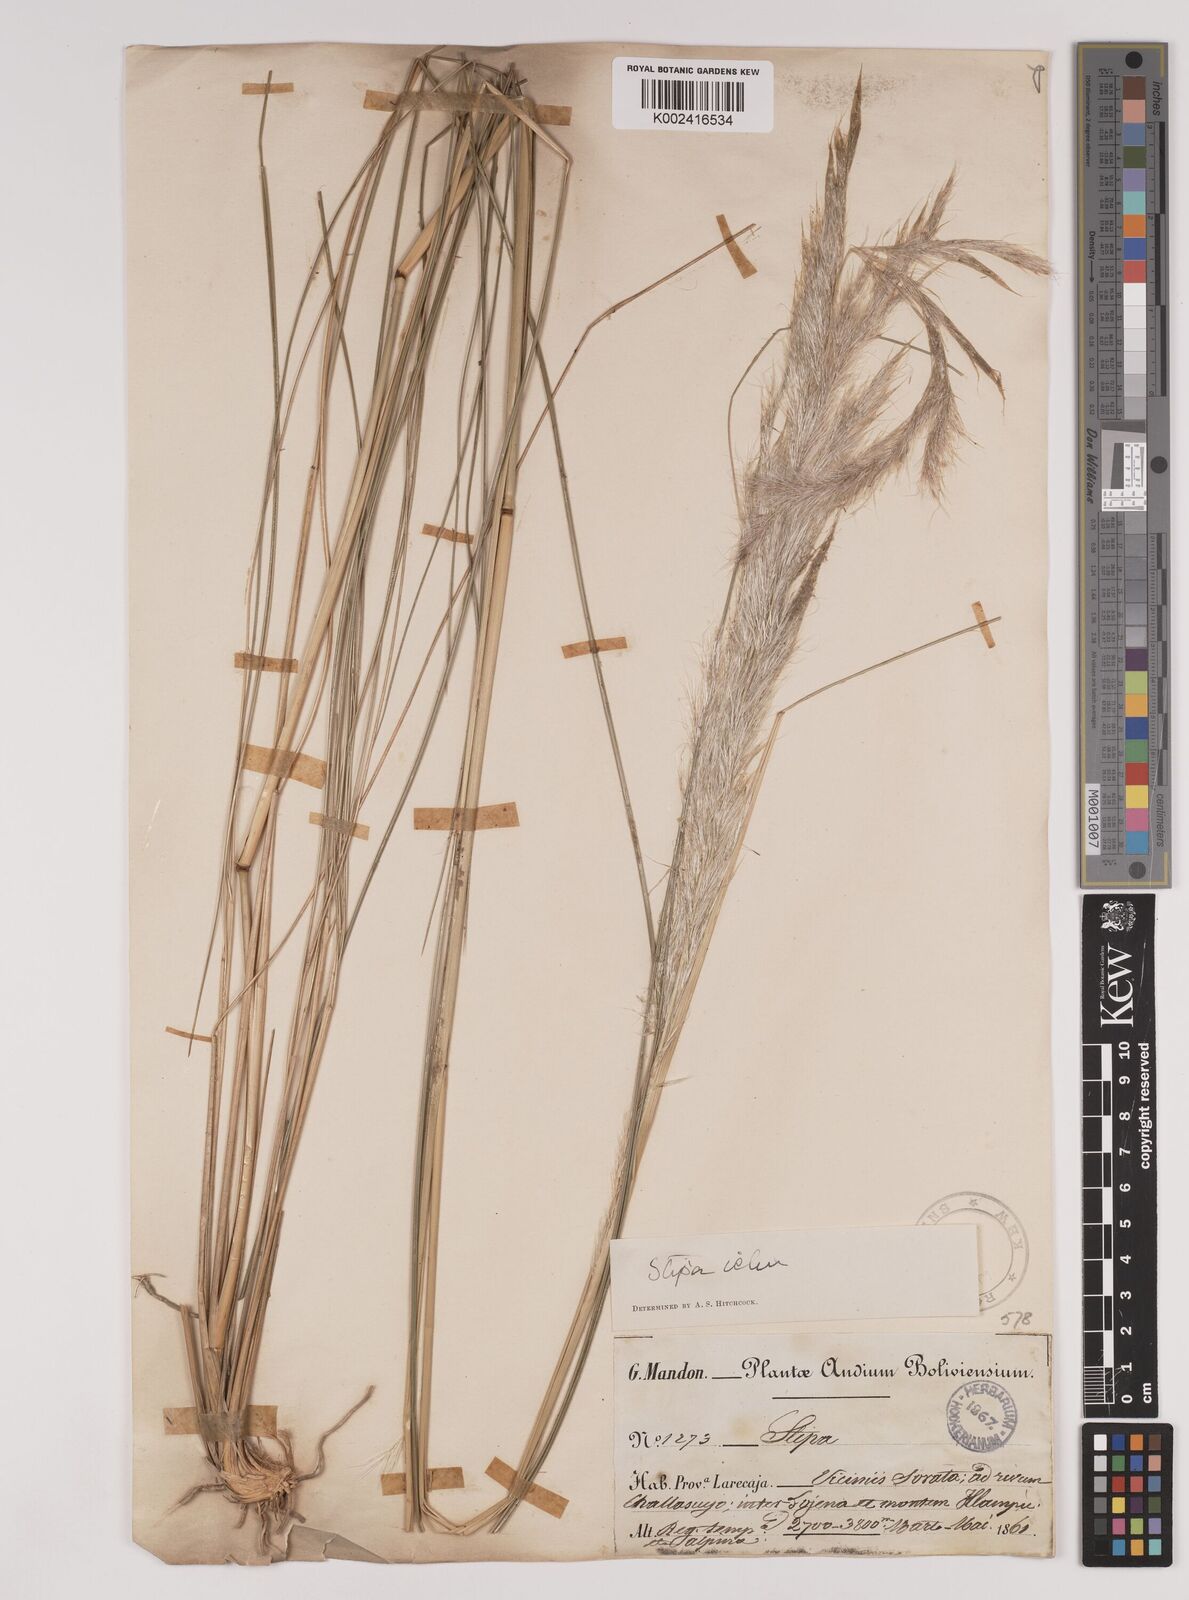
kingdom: Plantae
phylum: Tracheophyta
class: Liliopsida
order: Poales
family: Poaceae
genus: Stipa
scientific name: Stipa
